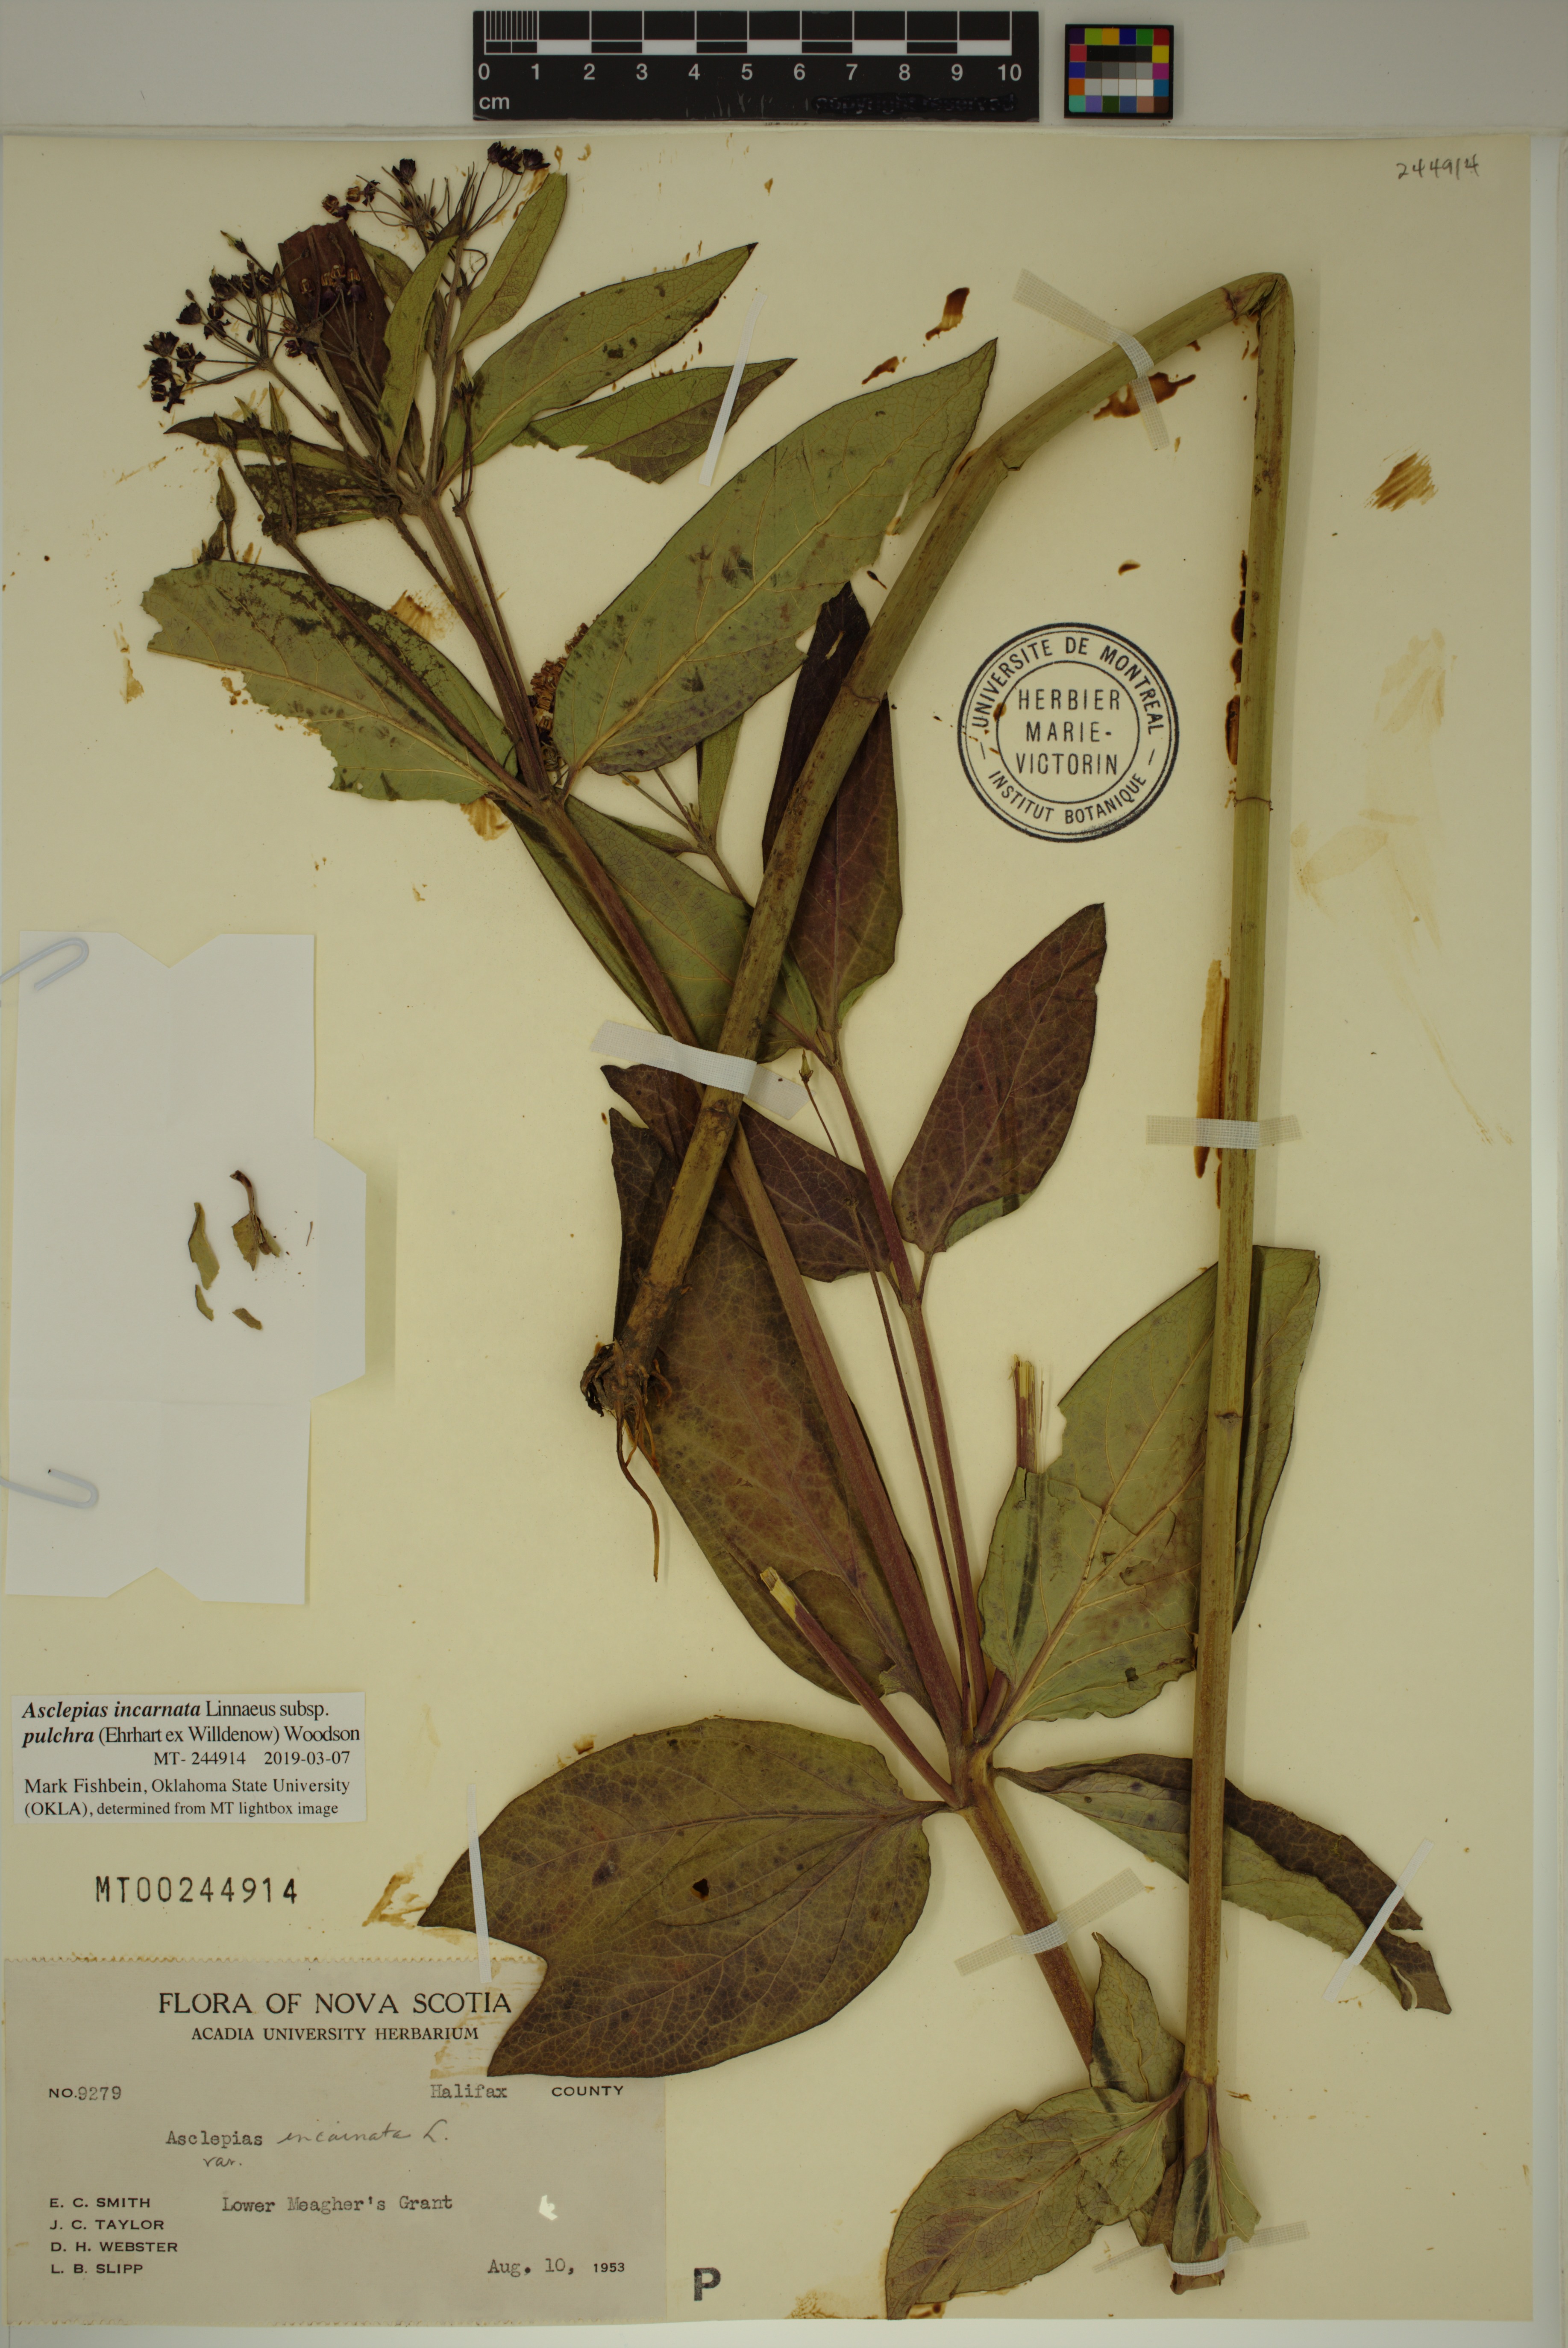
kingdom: Plantae
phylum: Tracheophyta
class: Magnoliopsida
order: Gentianales
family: Apocynaceae
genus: Asclepias
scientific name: Asclepias incarnata
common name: Swamp milkweed
